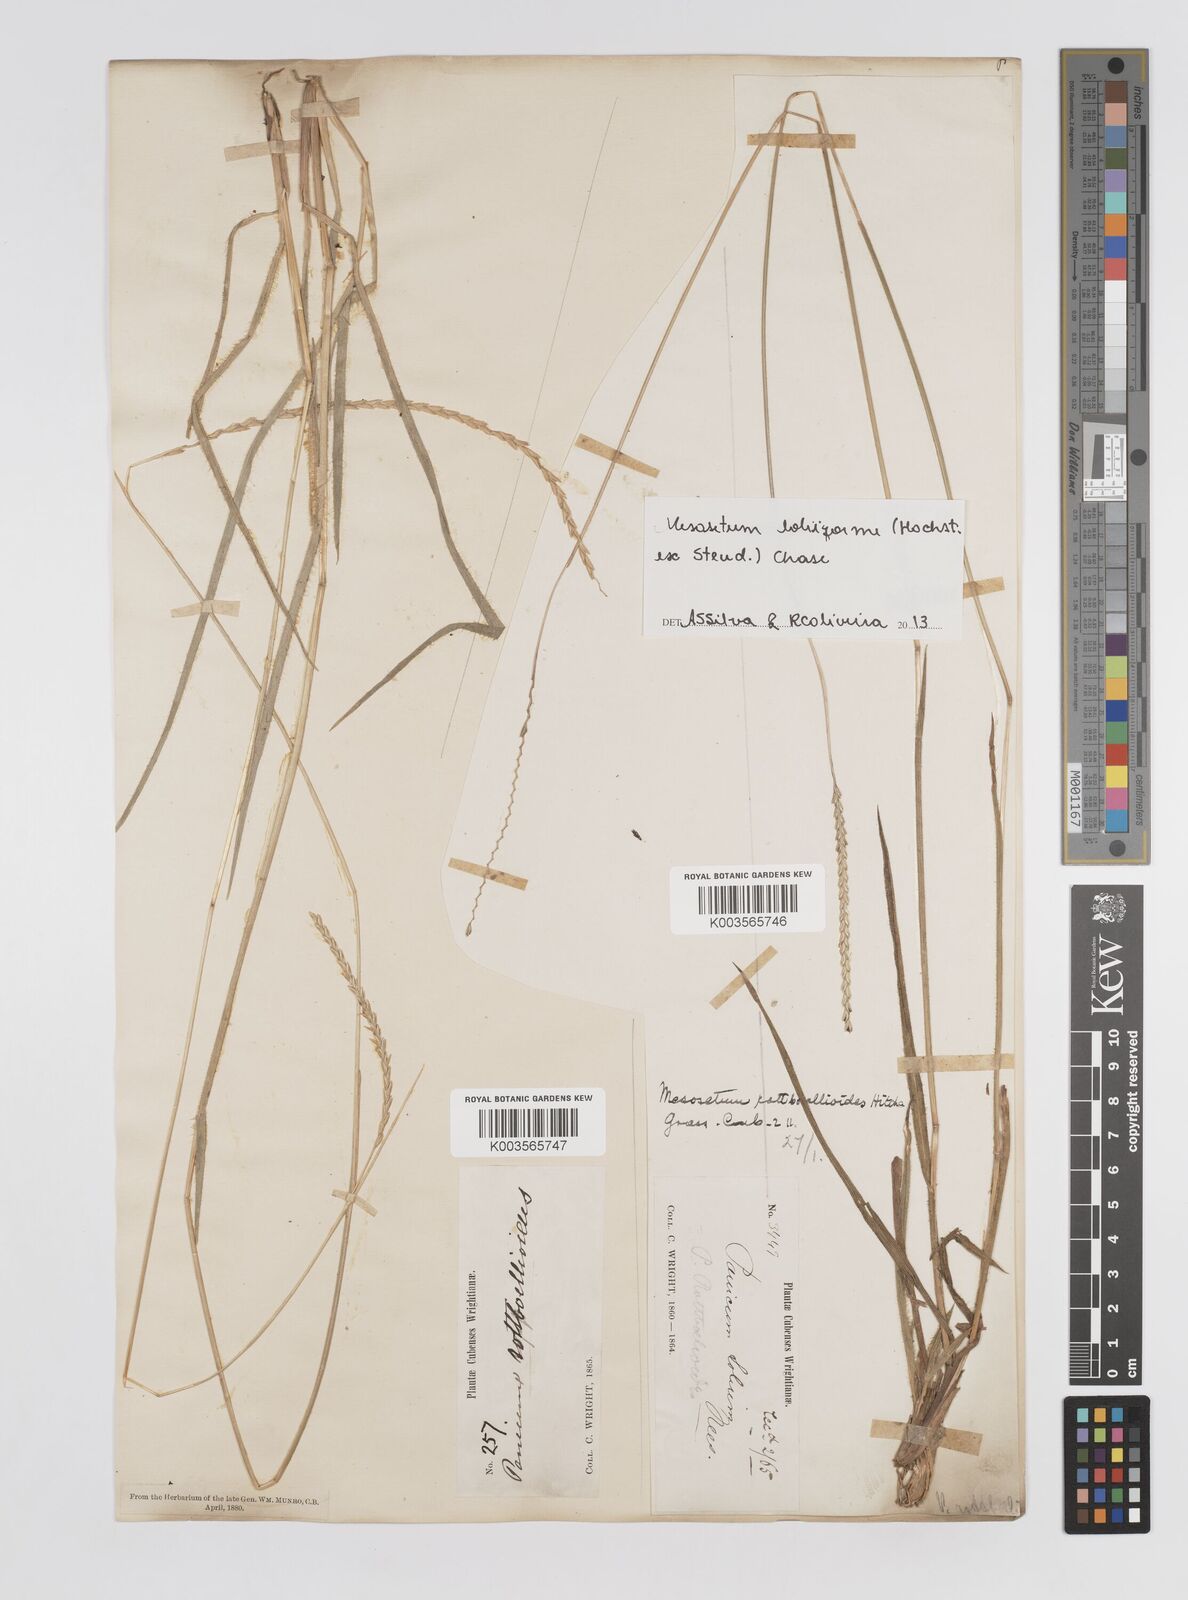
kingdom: Plantae
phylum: Tracheophyta
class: Liliopsida
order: Poales
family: Poaceae
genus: Mesosetum
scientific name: Mesosetum loliiforme
